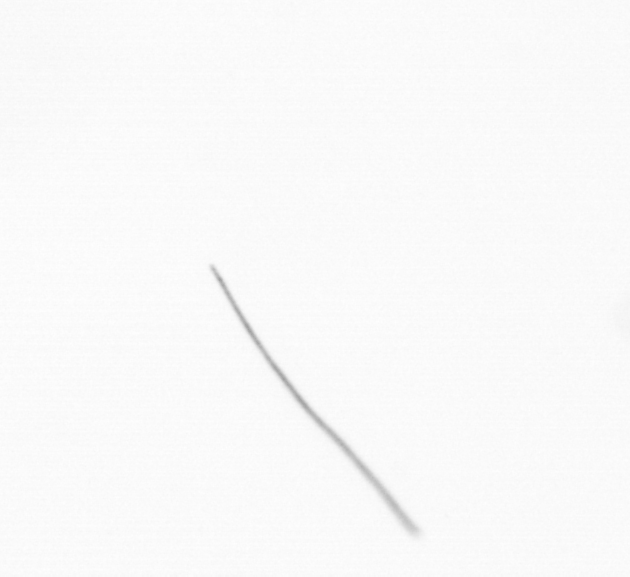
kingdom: Chromista
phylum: Ochrophyta
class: Bacillariophyceae
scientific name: Bacillariophyceae
